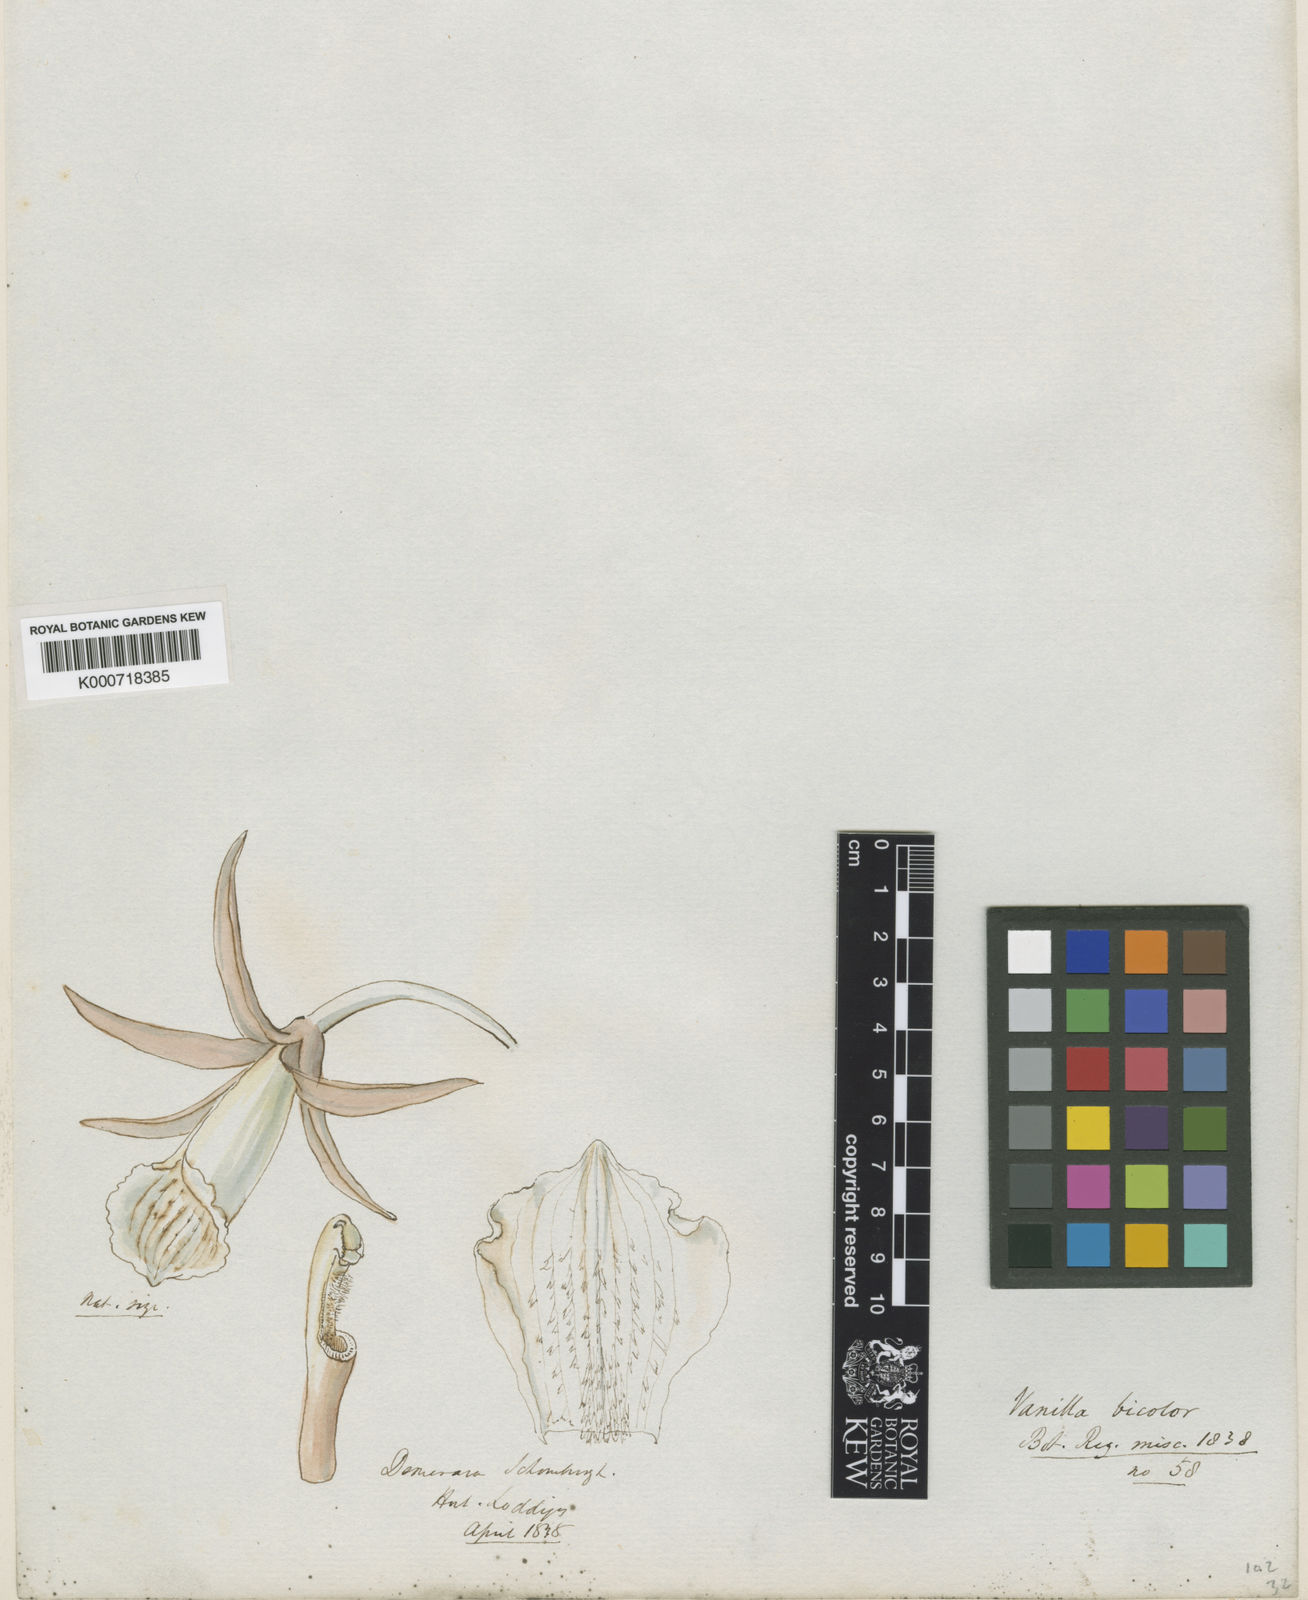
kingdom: Plantae
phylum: Tracheophyta
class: Liliopsida
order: Asparagales
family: Orchidaceae
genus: Vanilla
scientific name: Vanilla bicolor
